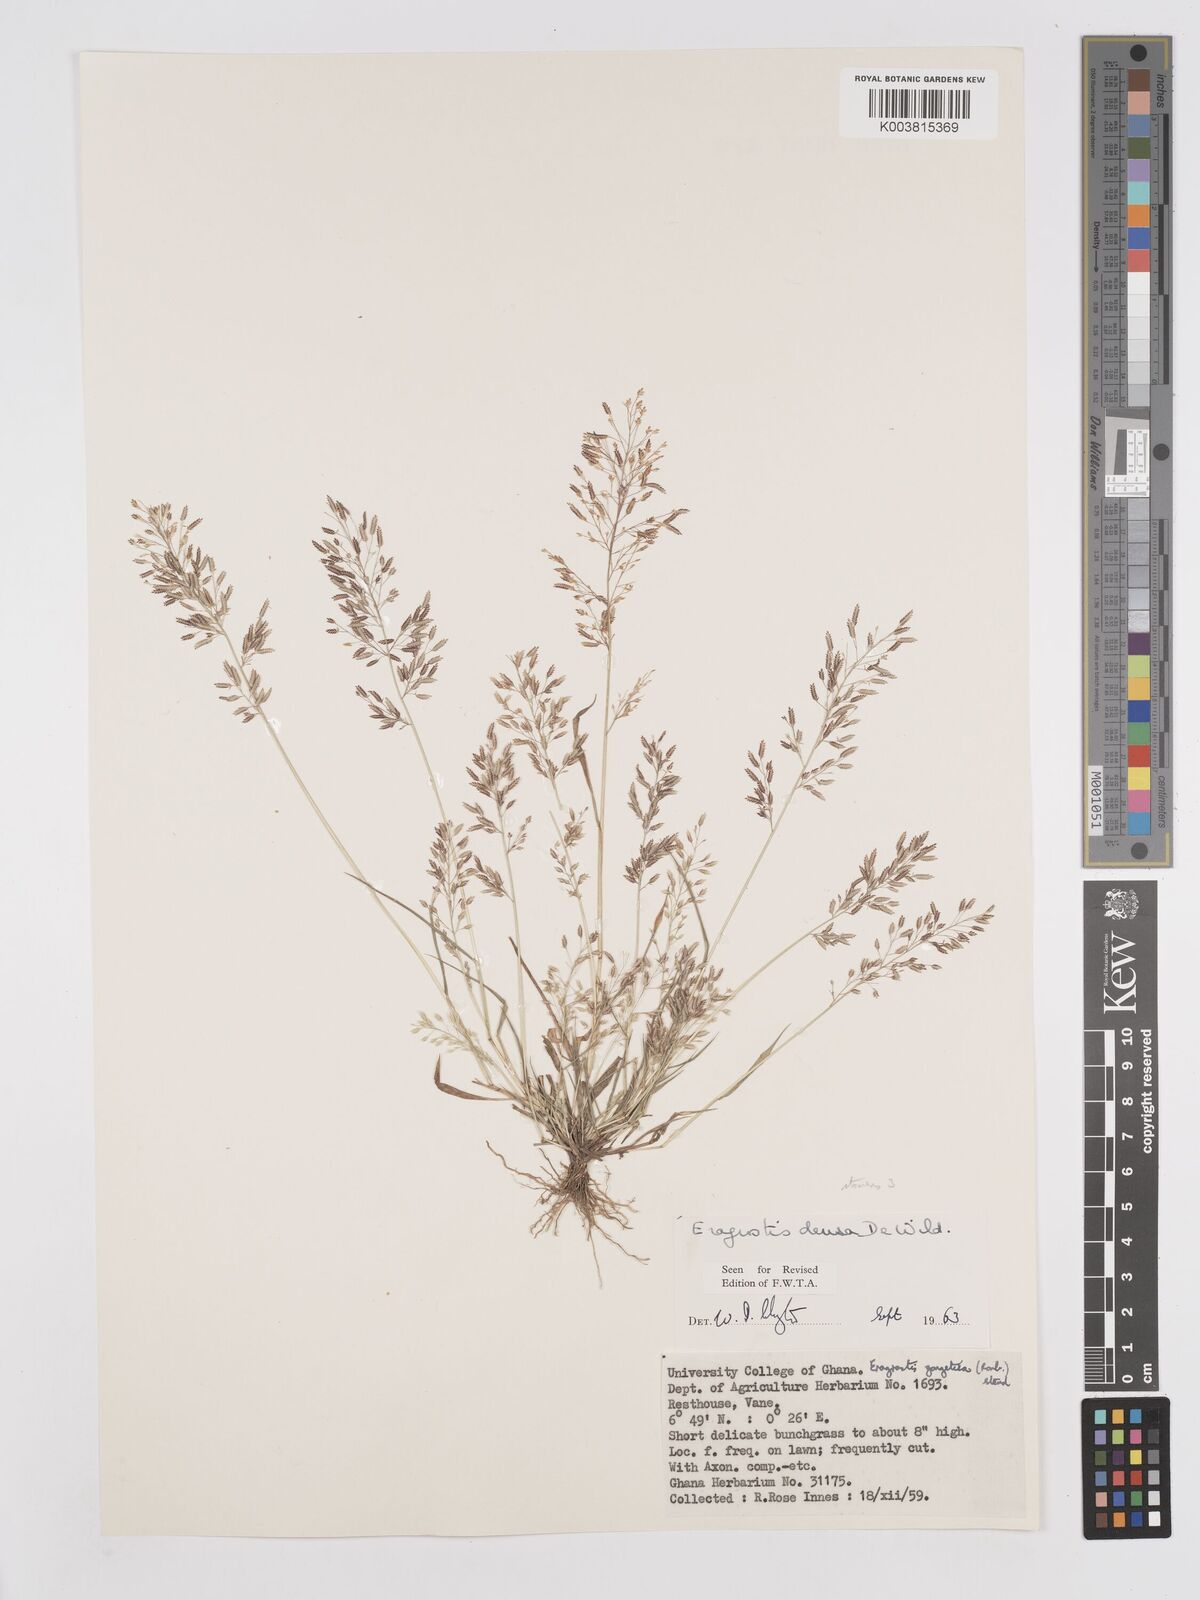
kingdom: Plantae
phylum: Tracheophyta
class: Liliopsida
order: Poales
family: Poaceae
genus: Eragrostis
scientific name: Eragrostis welwitschii
